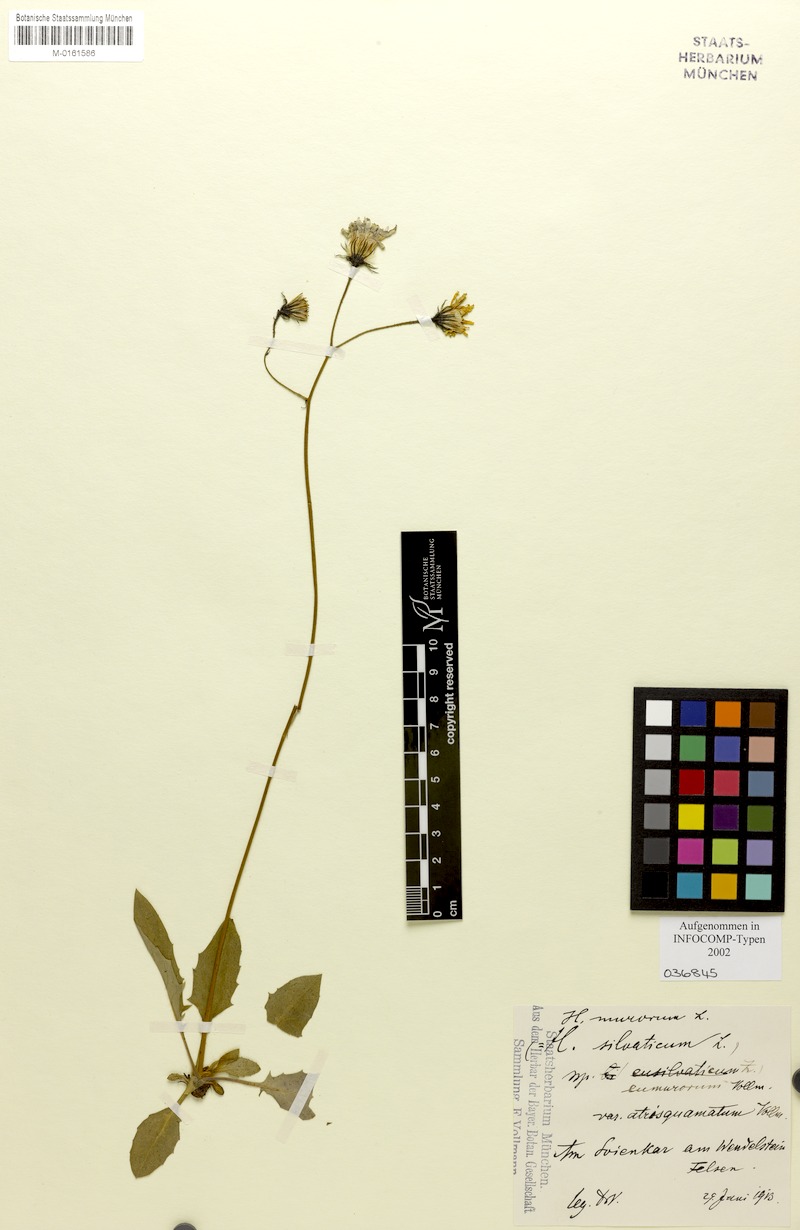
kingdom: Plantae
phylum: Tracheophyta
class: Magnoliopsida
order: Asterales
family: Asteraceae
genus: Hieracium
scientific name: Hieracium murorum
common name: Wall hawkweed
